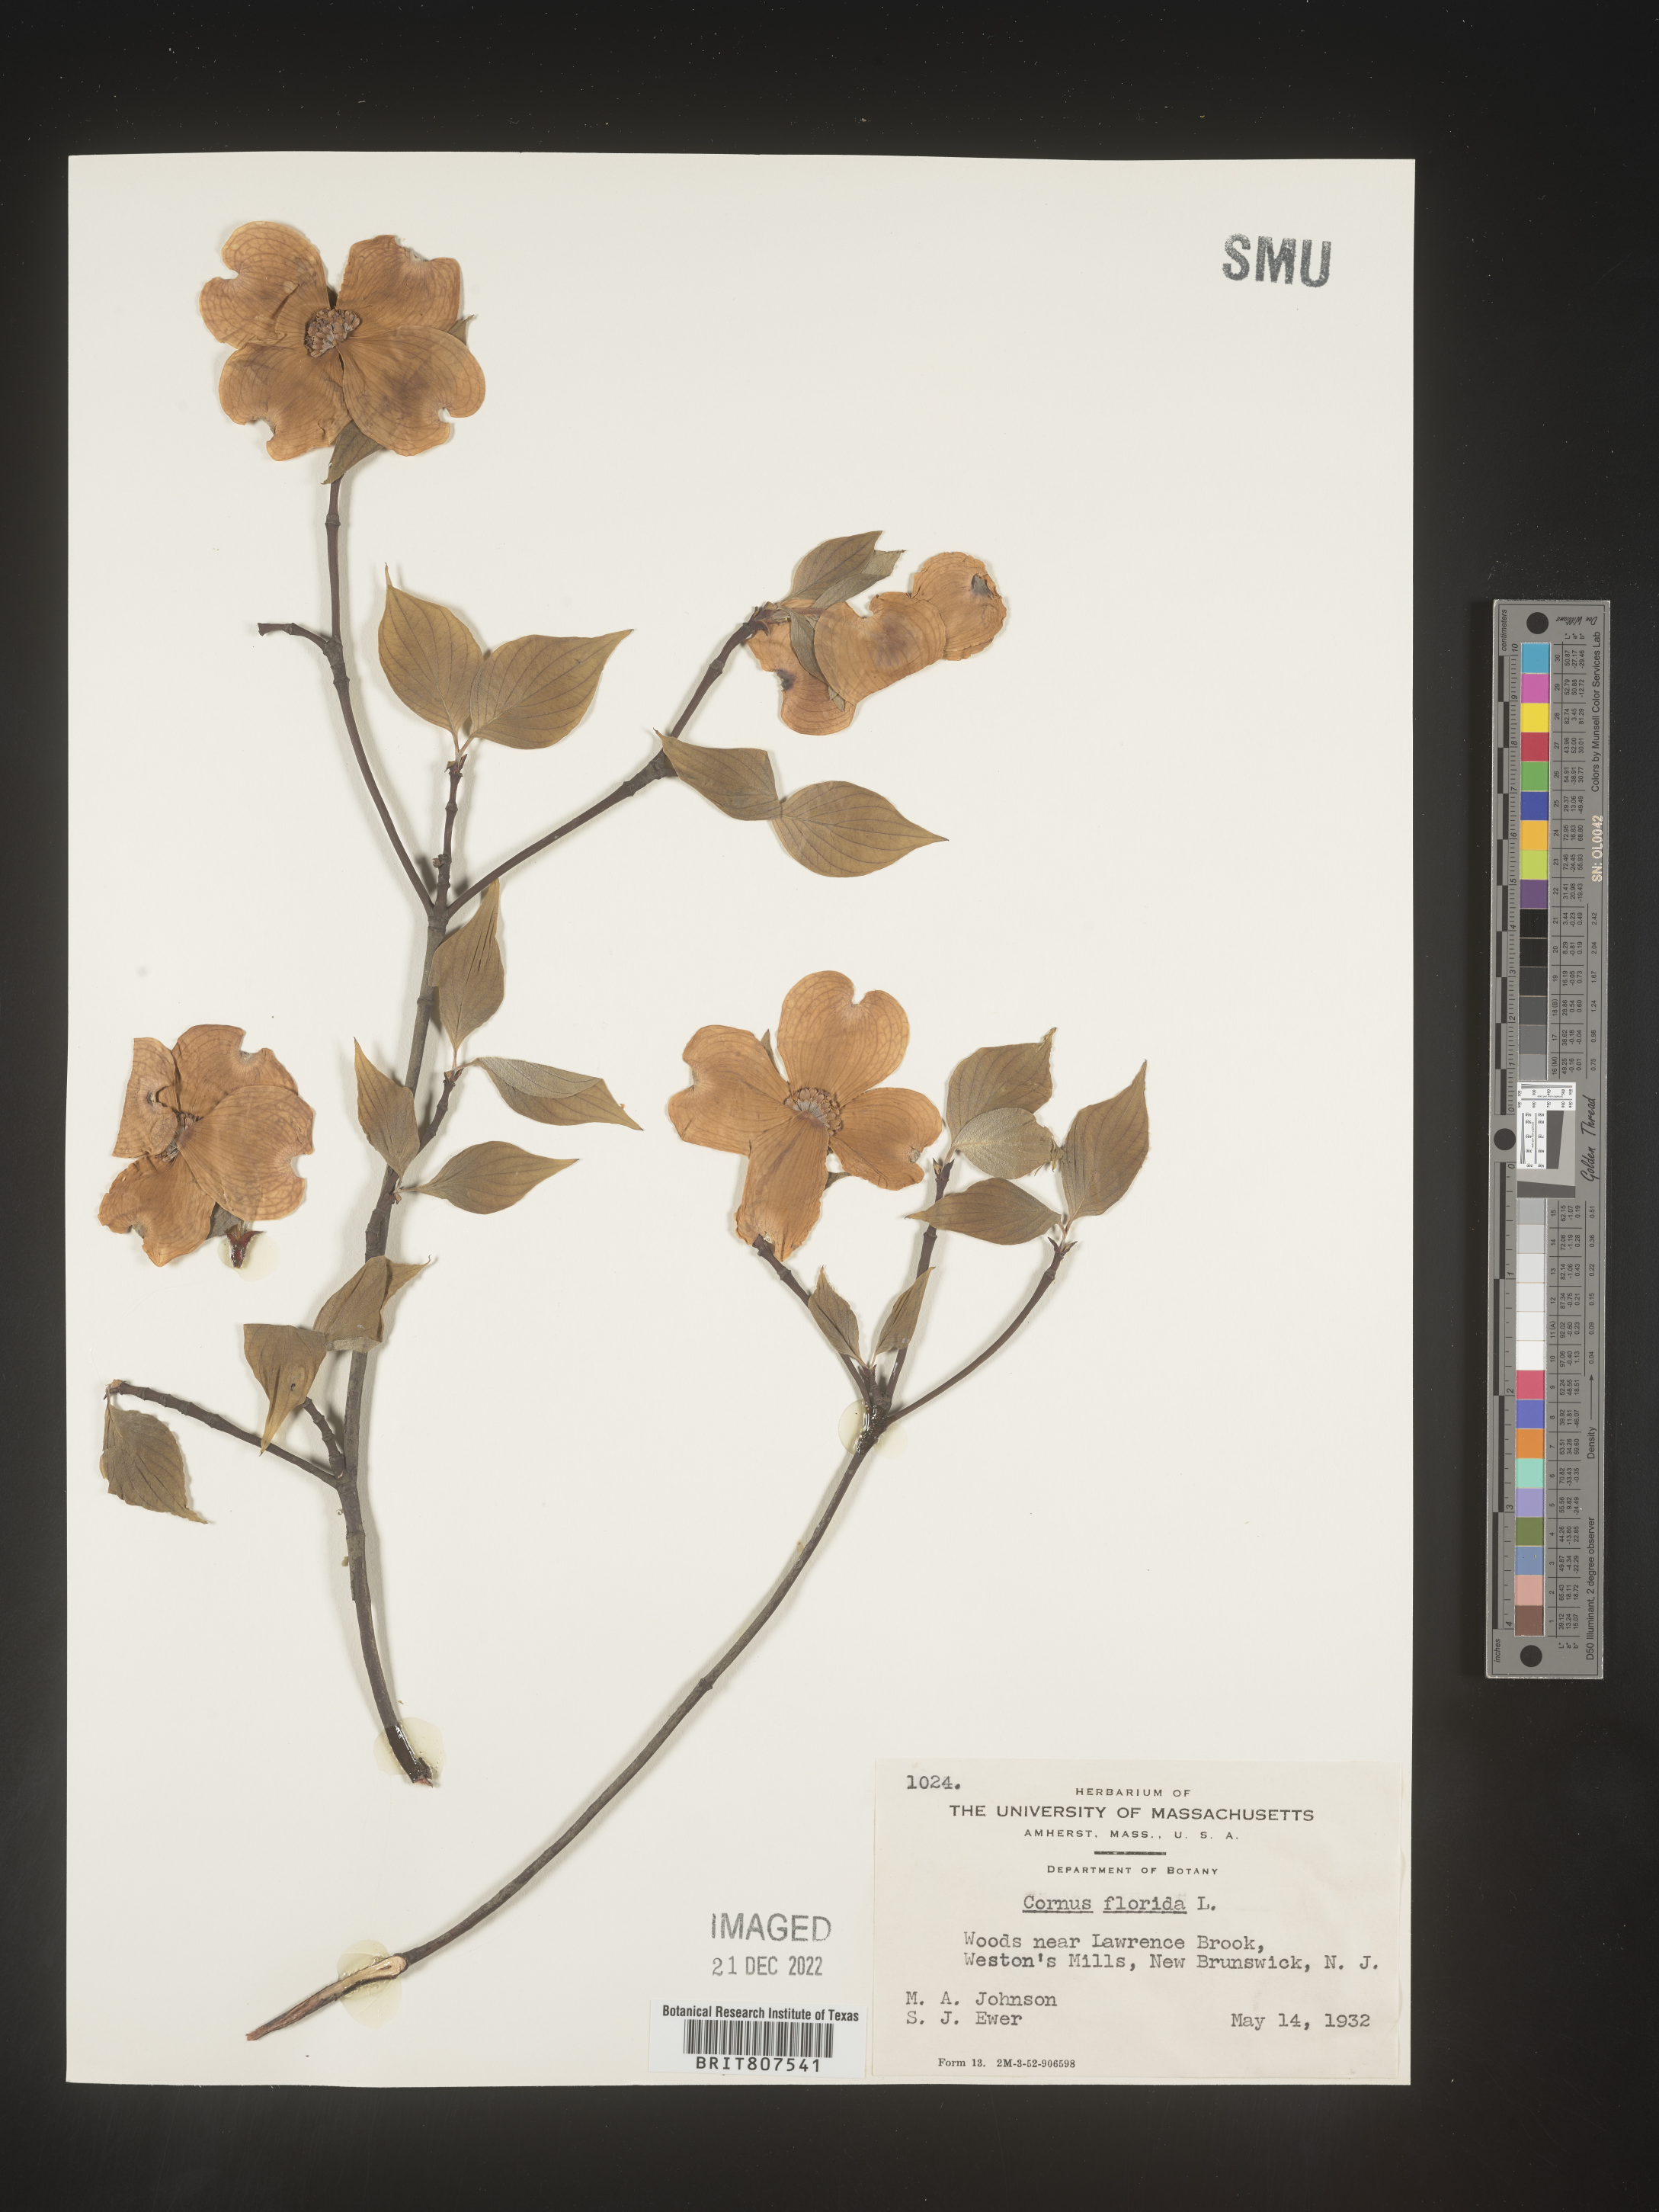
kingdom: Plantae
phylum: Tracheophyta
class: Magnoliopsida
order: Cornales
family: Cornaceae
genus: Cornus
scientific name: Cornus florida
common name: Flowering dogwood
